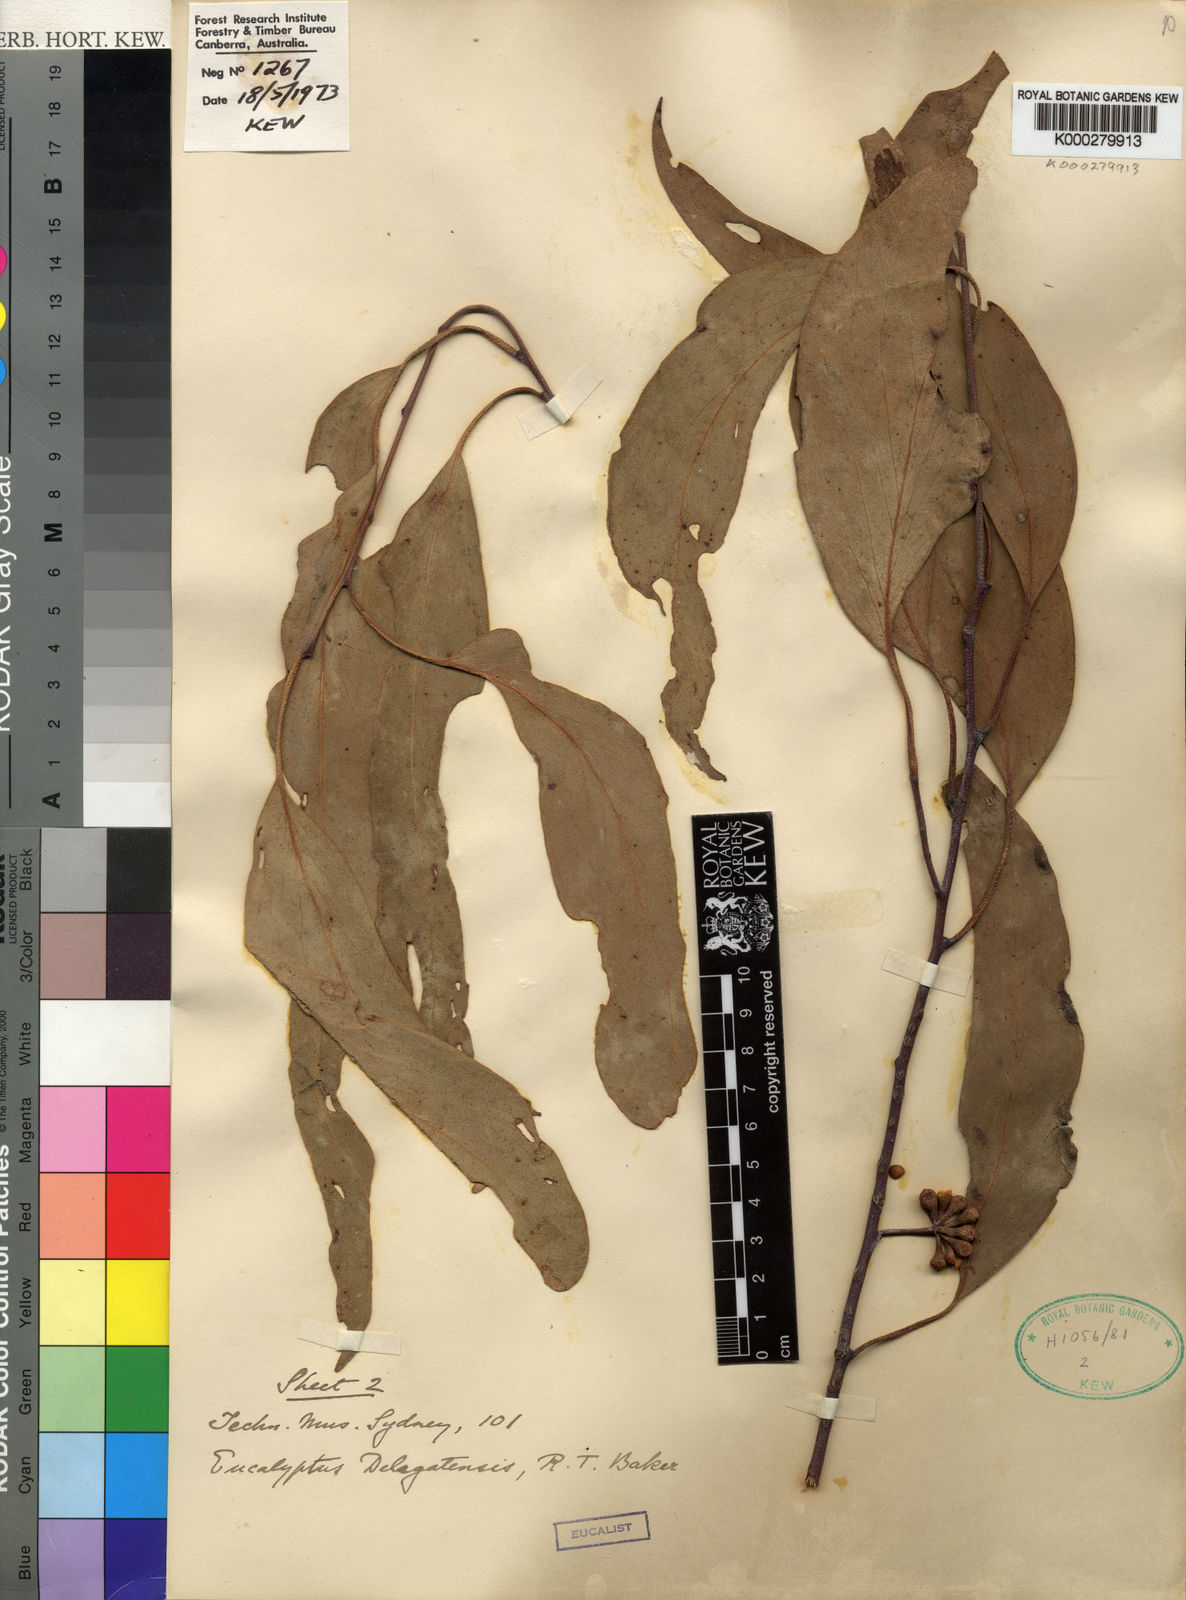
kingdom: Plantae
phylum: Tracheophyta
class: Magnoliopsida
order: Myrtales
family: Myrtaceae
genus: Eucalyptus
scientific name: Eucalyptus delegatensis
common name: Alpine-ash
